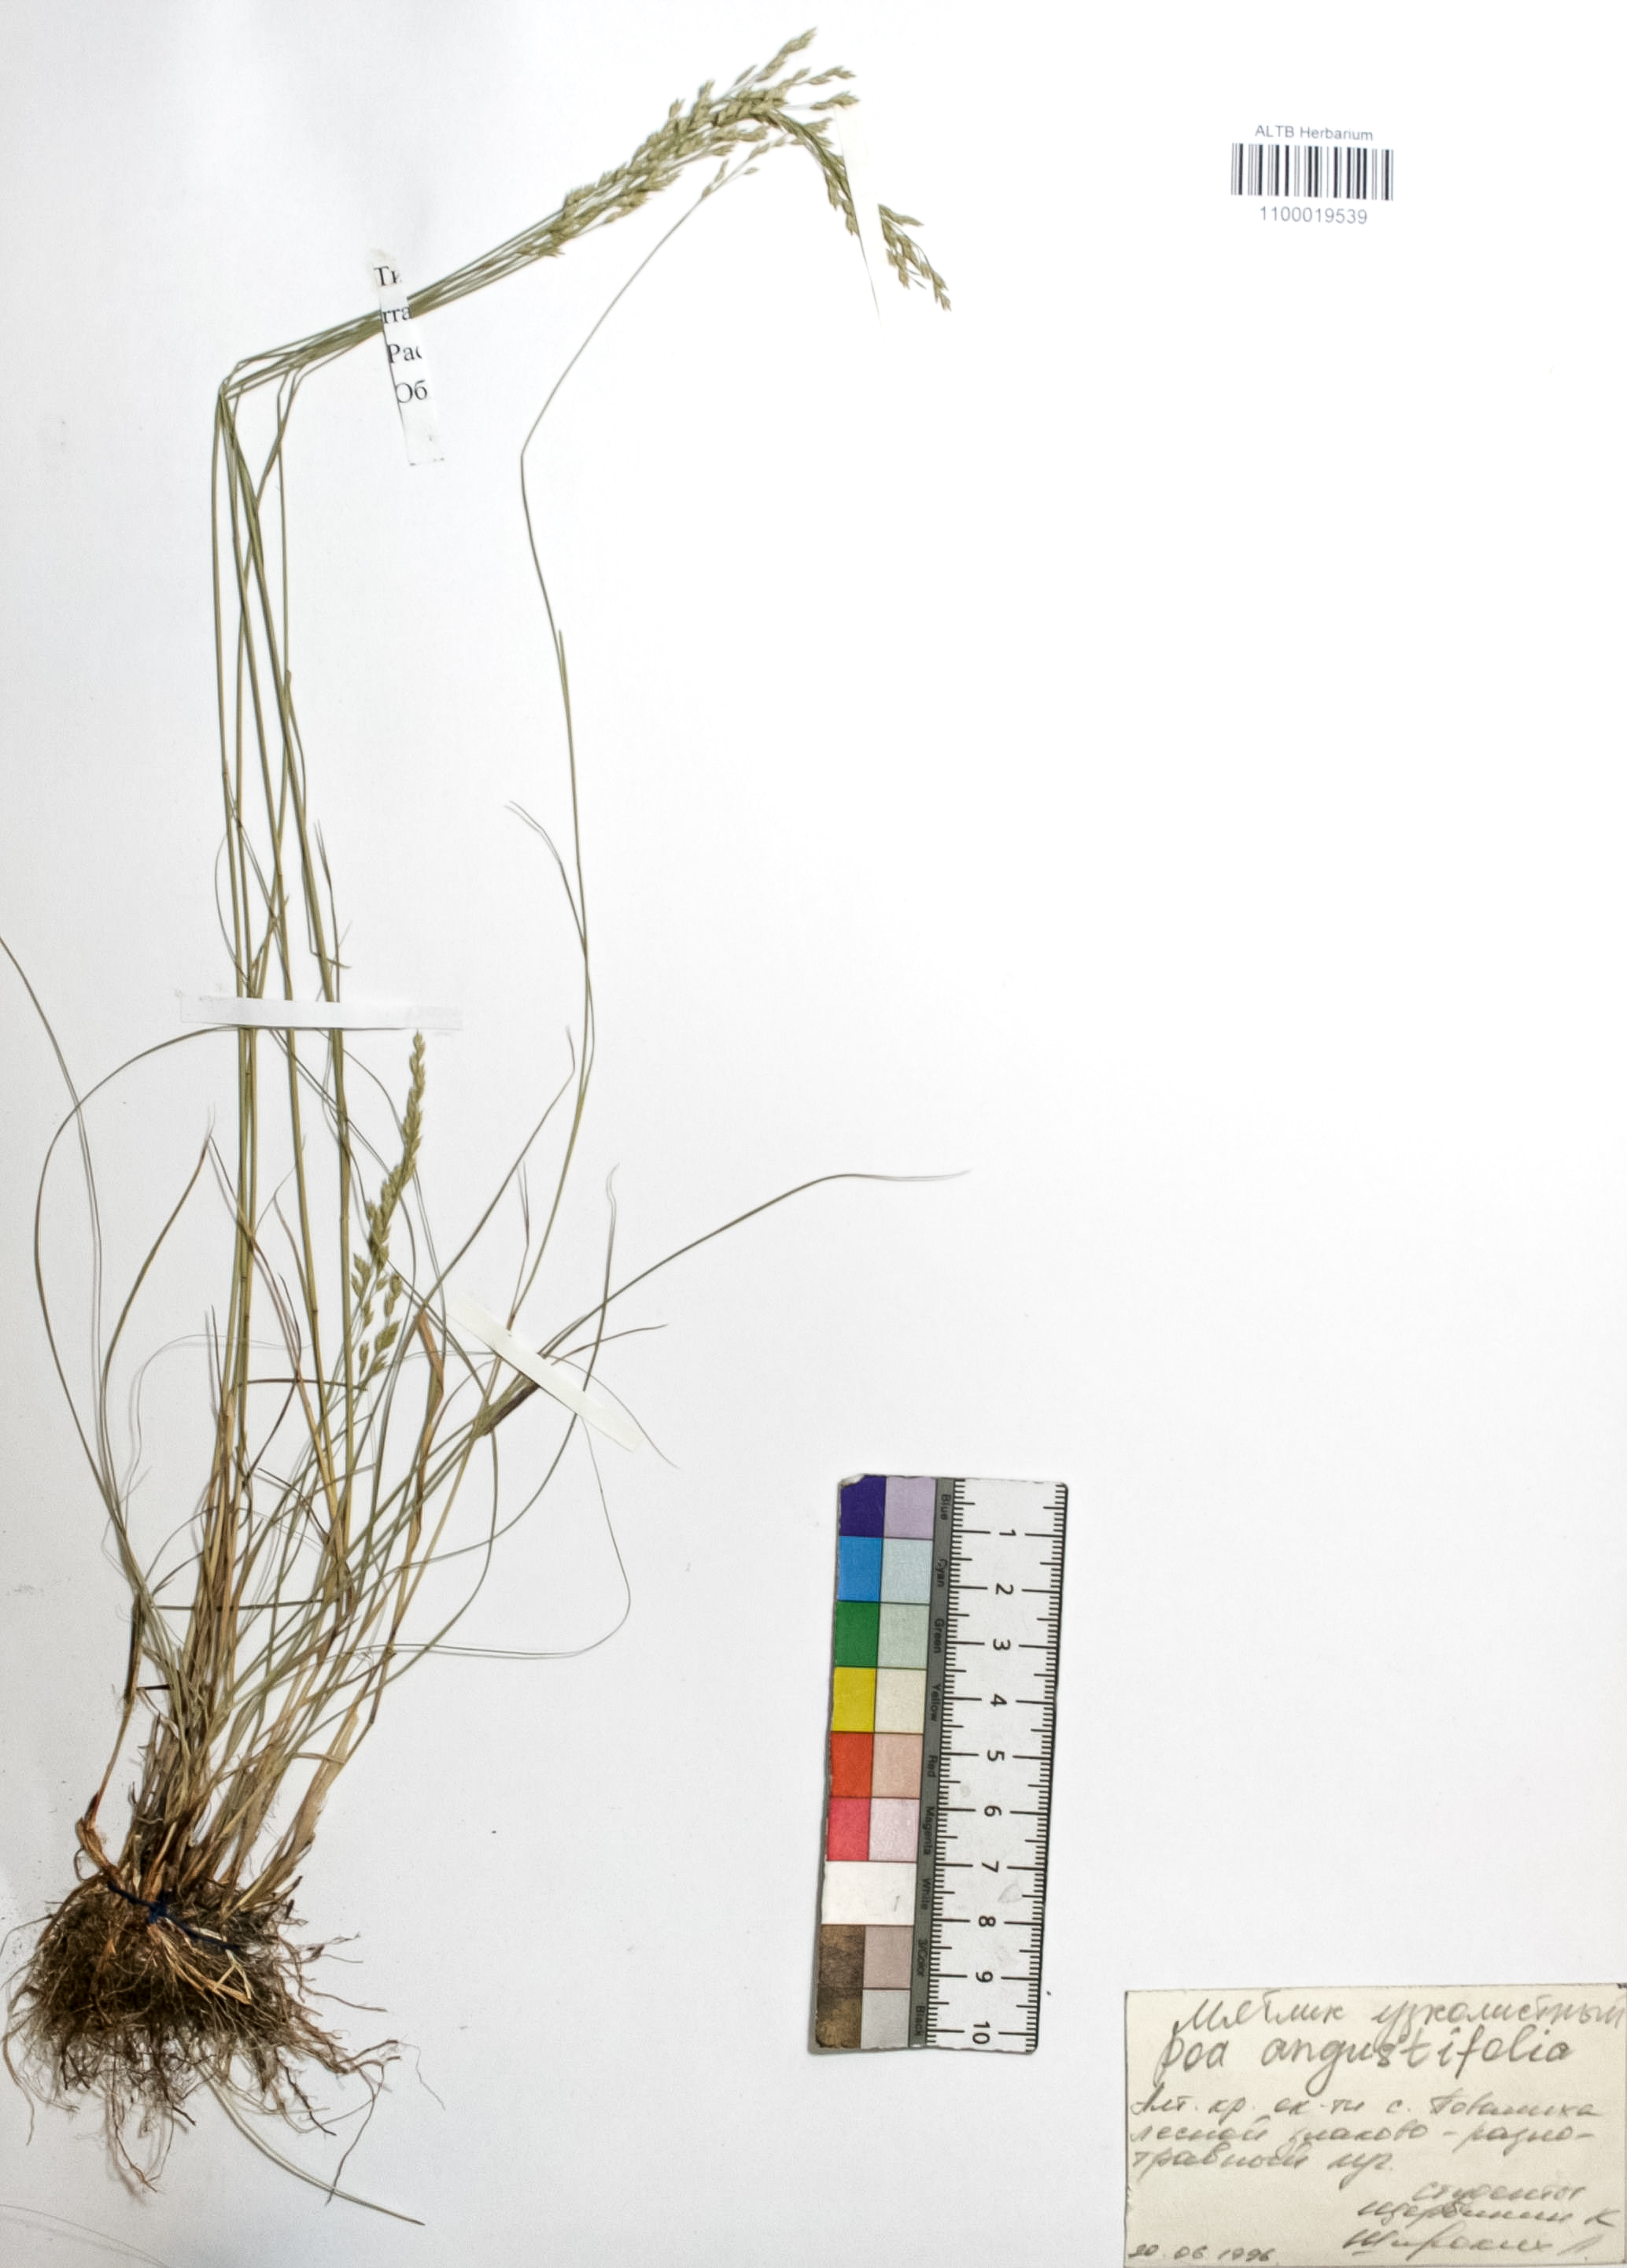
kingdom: Plantae
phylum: Tracheophyta
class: Liliopsida
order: Poales
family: Poaceae
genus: Poa
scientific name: Poa angustifolia
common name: Narrow-leaved meadow-grass
